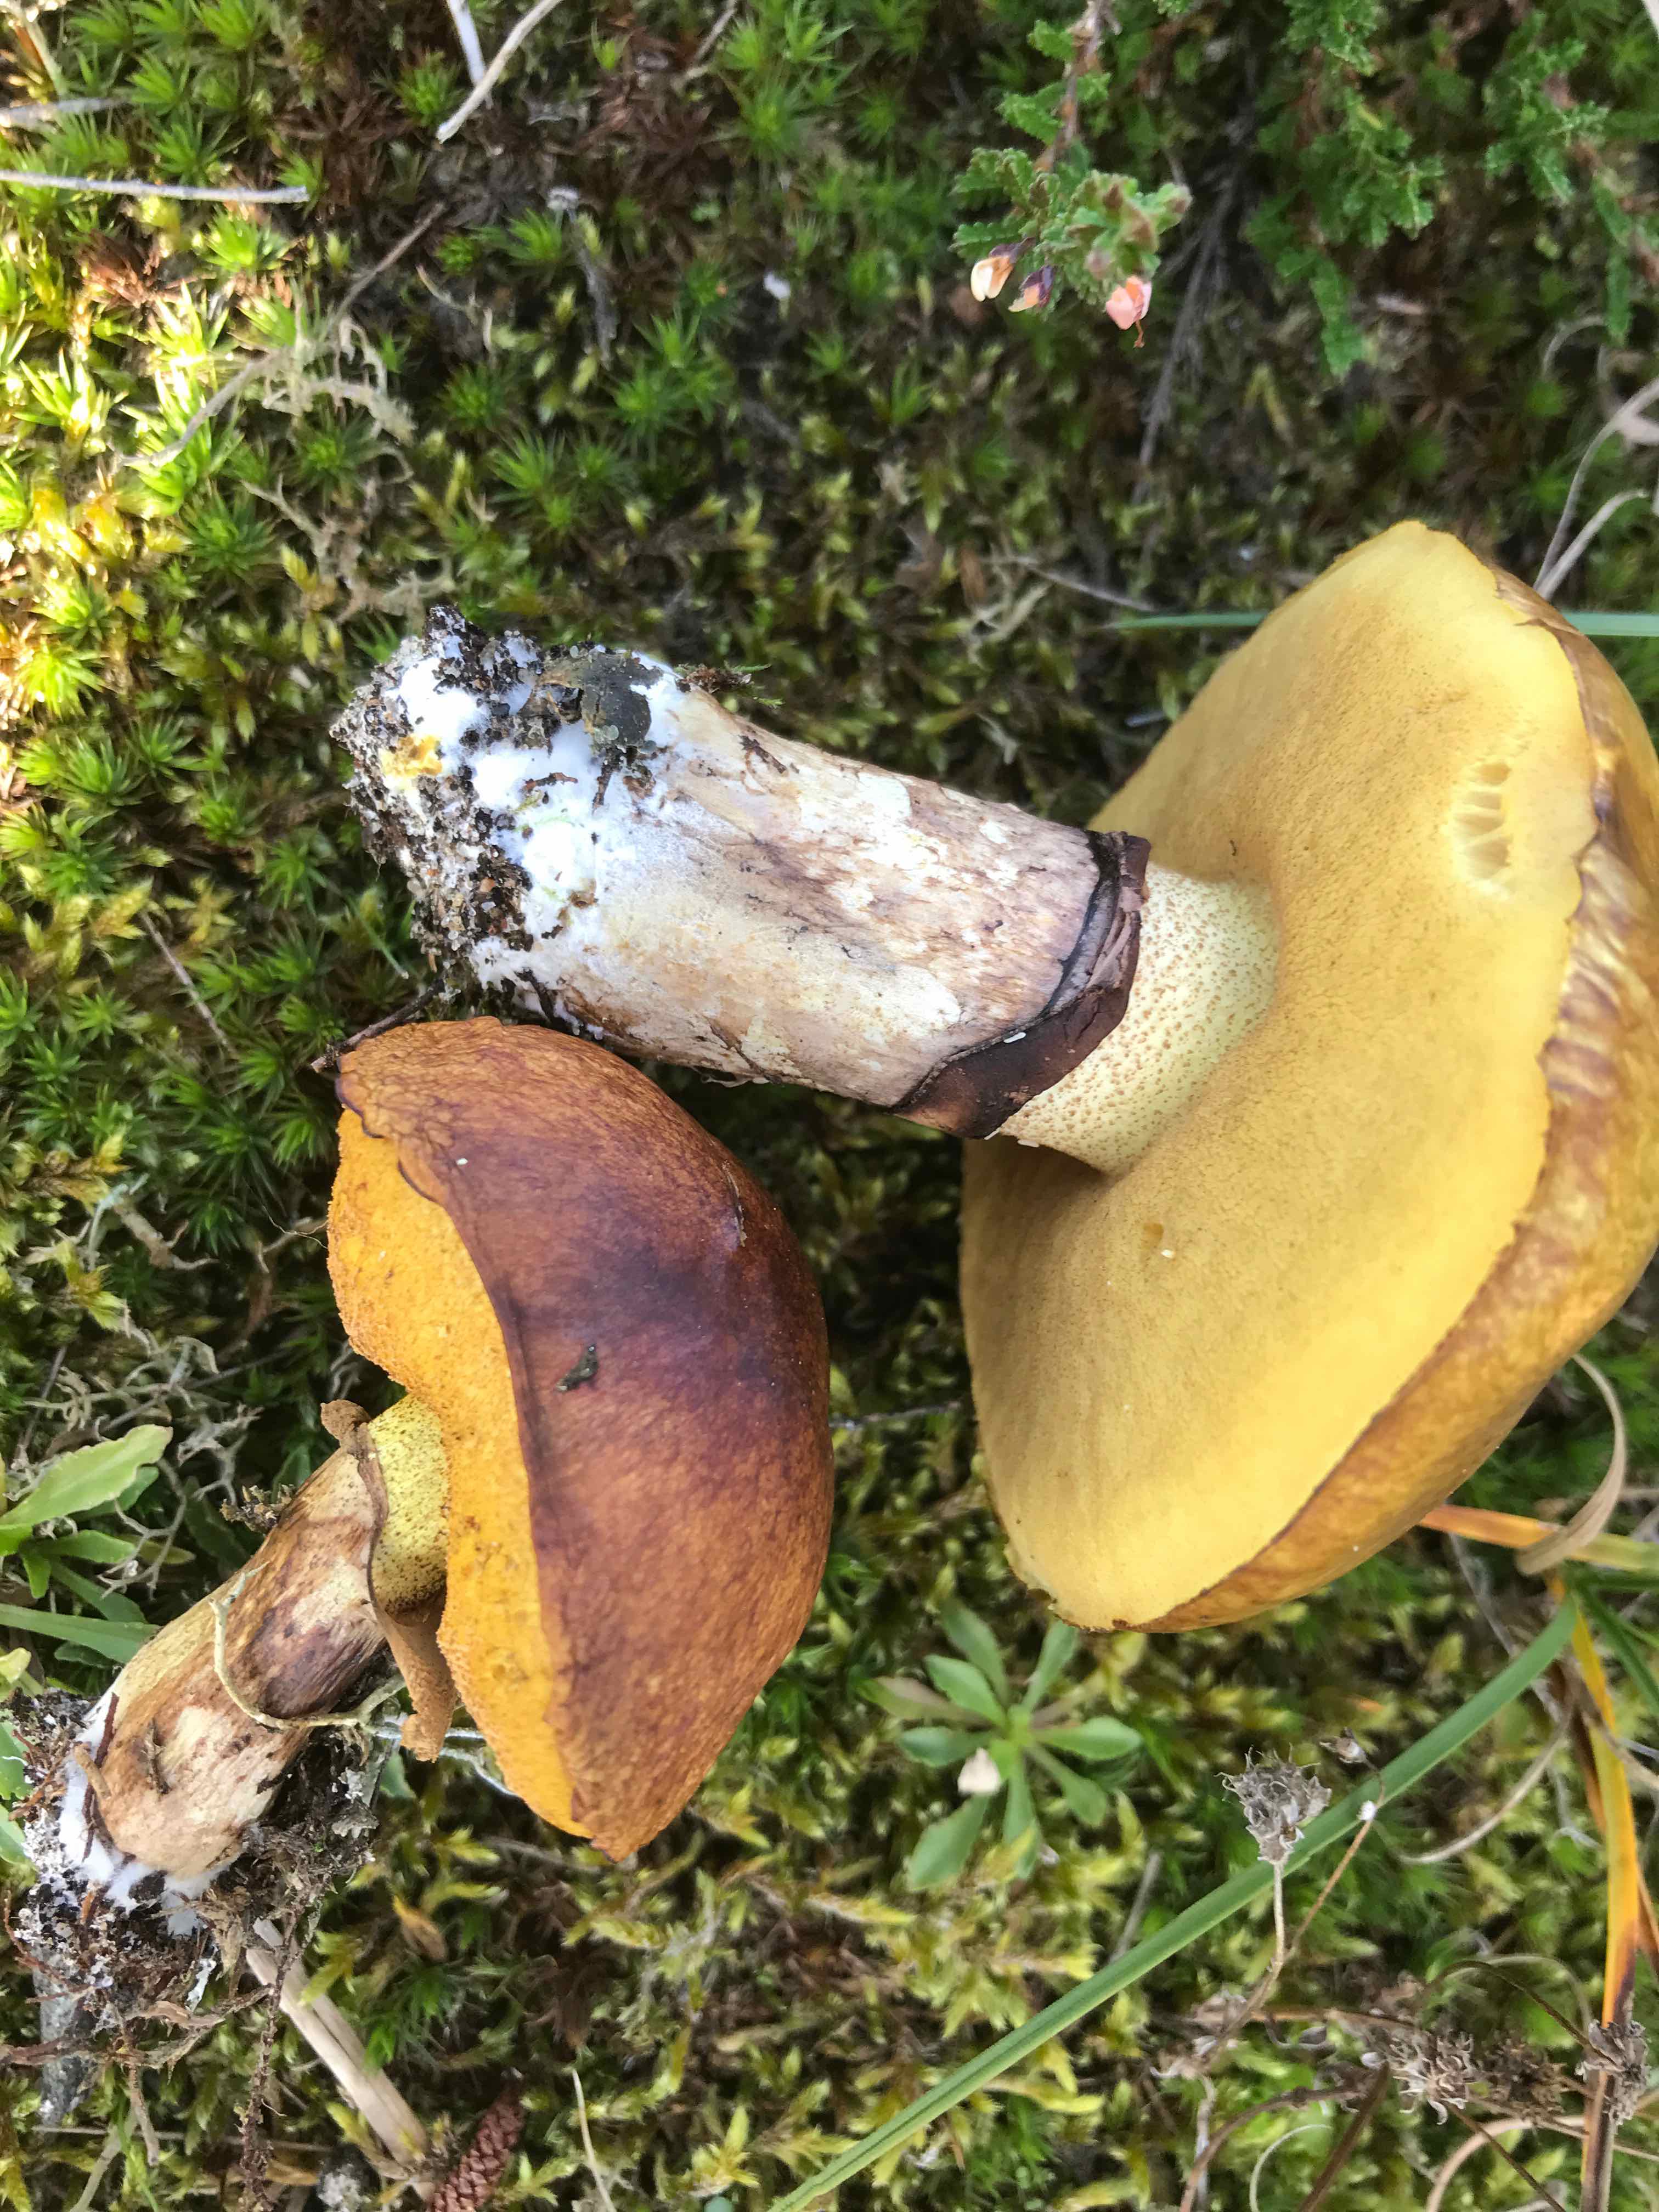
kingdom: Fungi
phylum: Basidiomycota
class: Agaricomycetes
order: Boletales
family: Suillaceae
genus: Suillus
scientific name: Suillus luteus
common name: brungul slimrørhat
